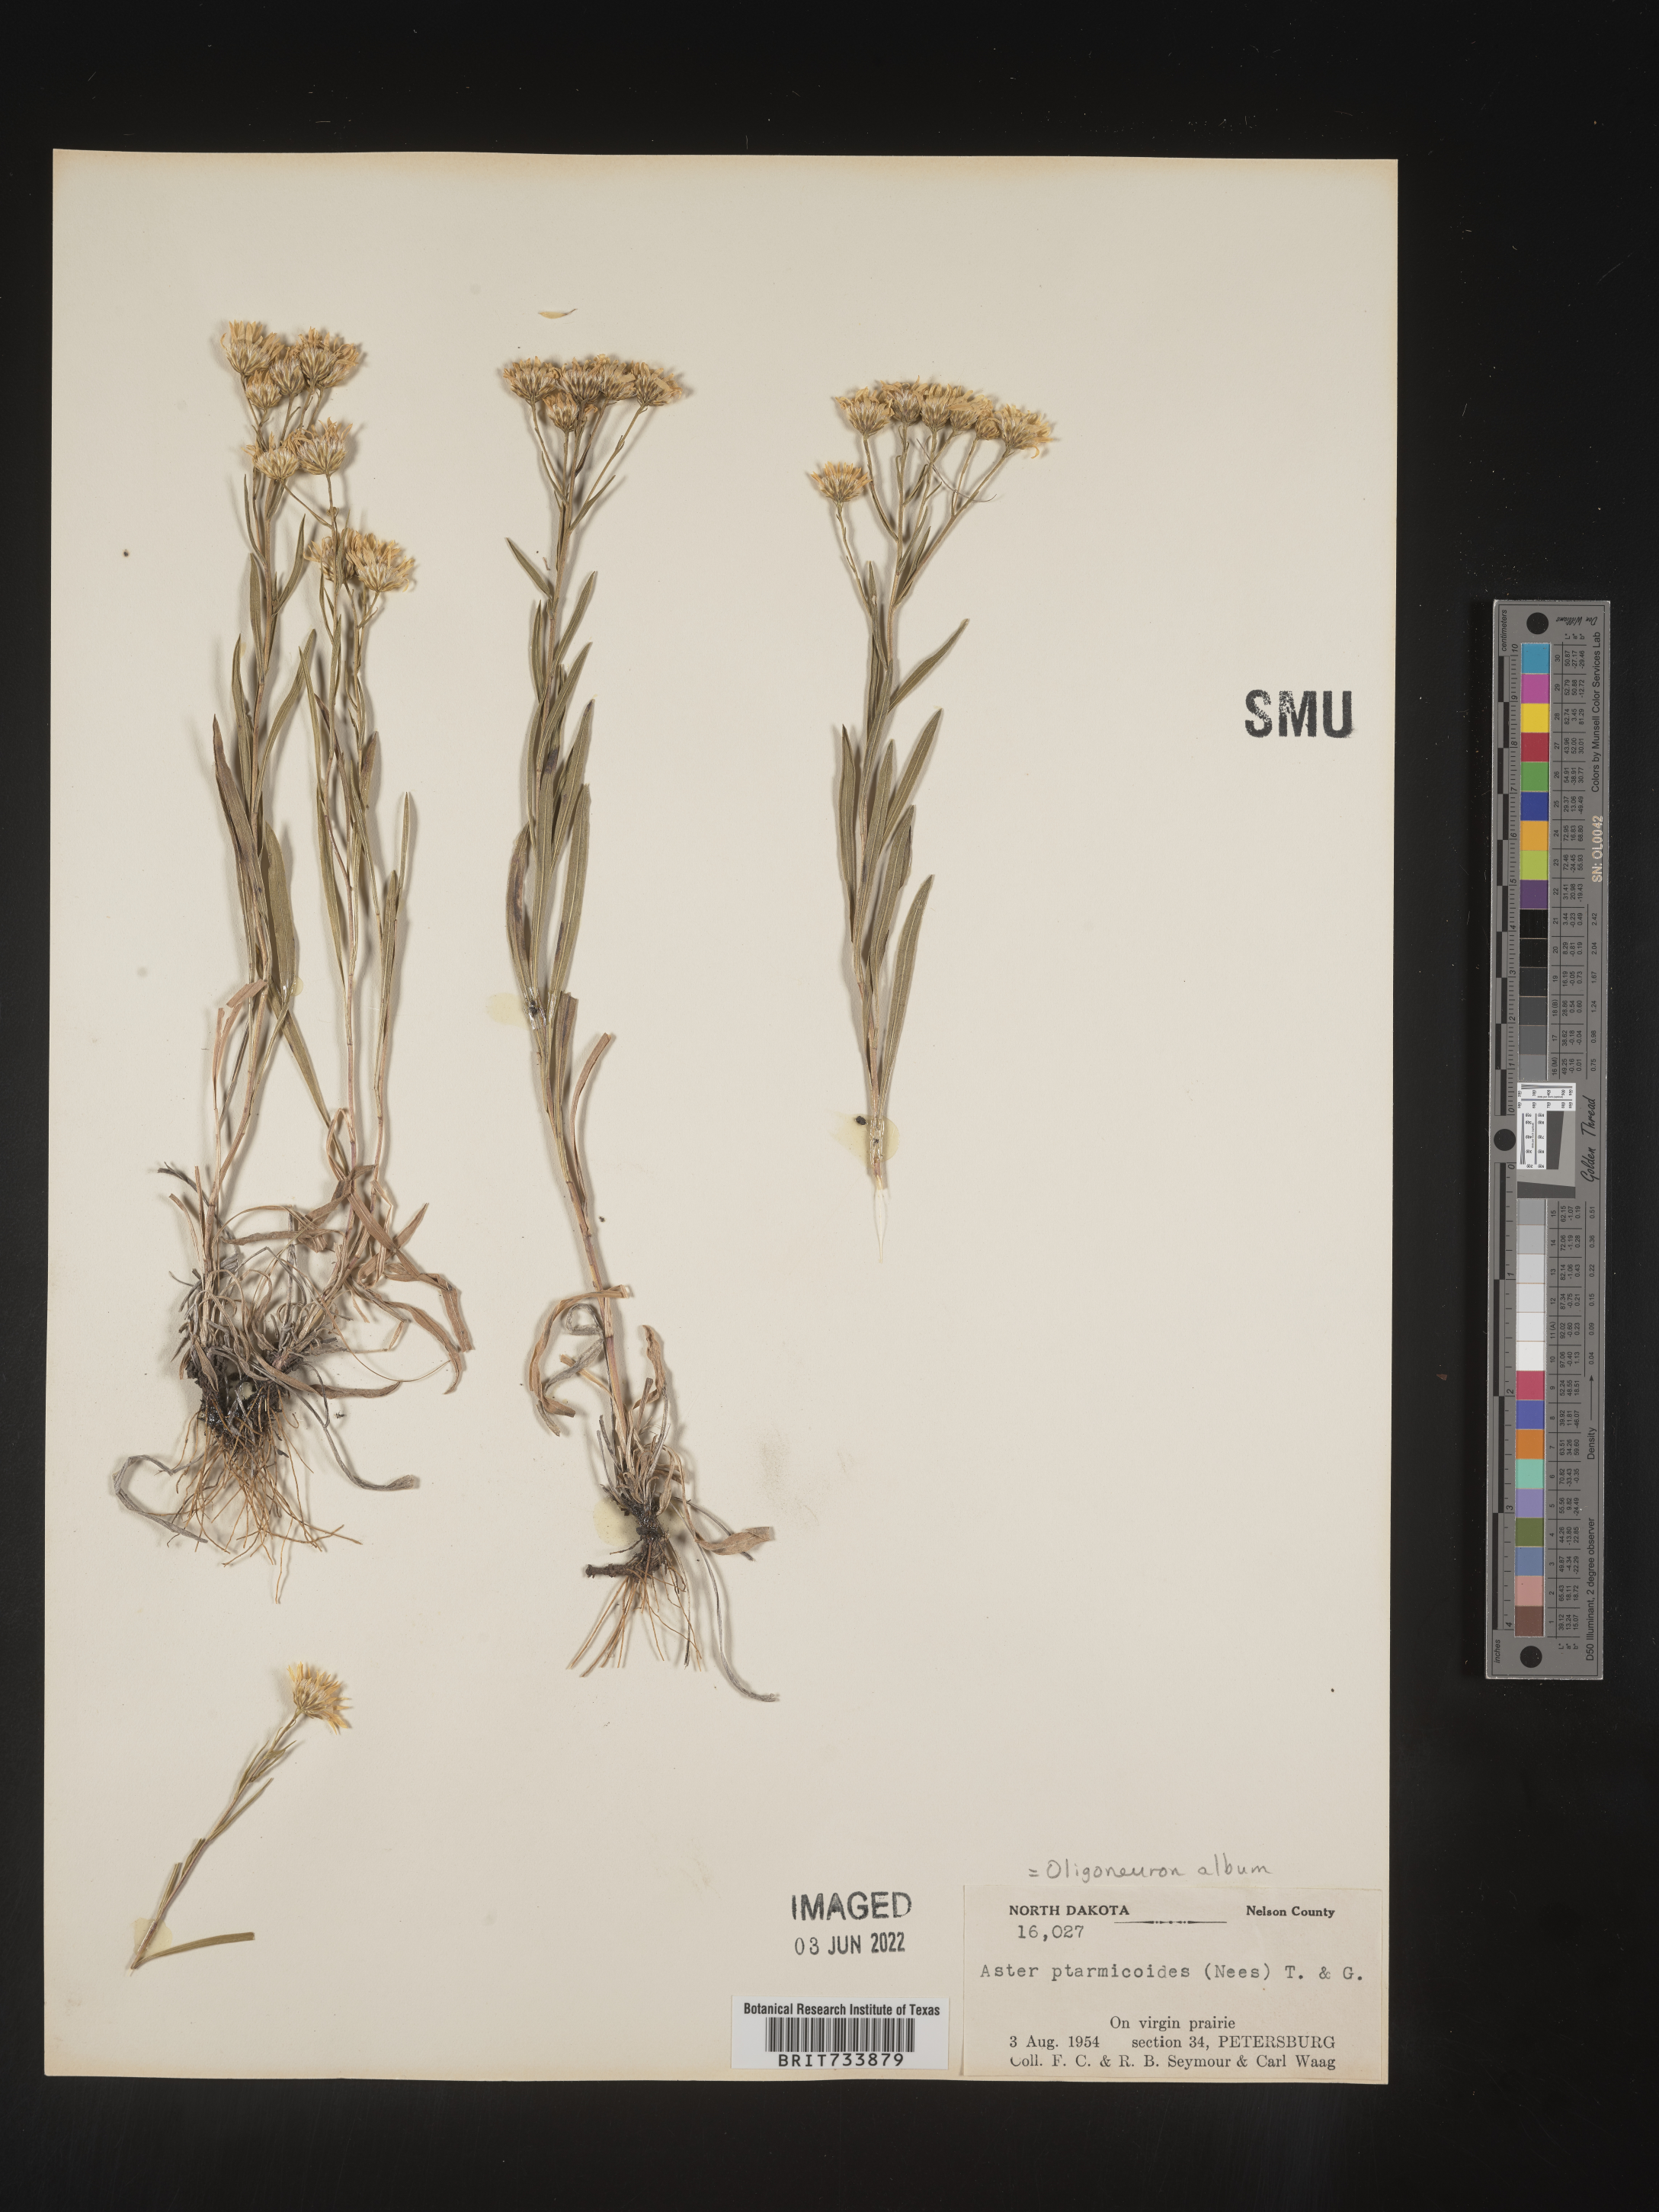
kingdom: Plantae
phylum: Tracheophyta
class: Magnoliopsida
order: Asterales
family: Asteraceae
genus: Solidago
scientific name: Solidago ptarmicoides
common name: White flat-top goldenrod
